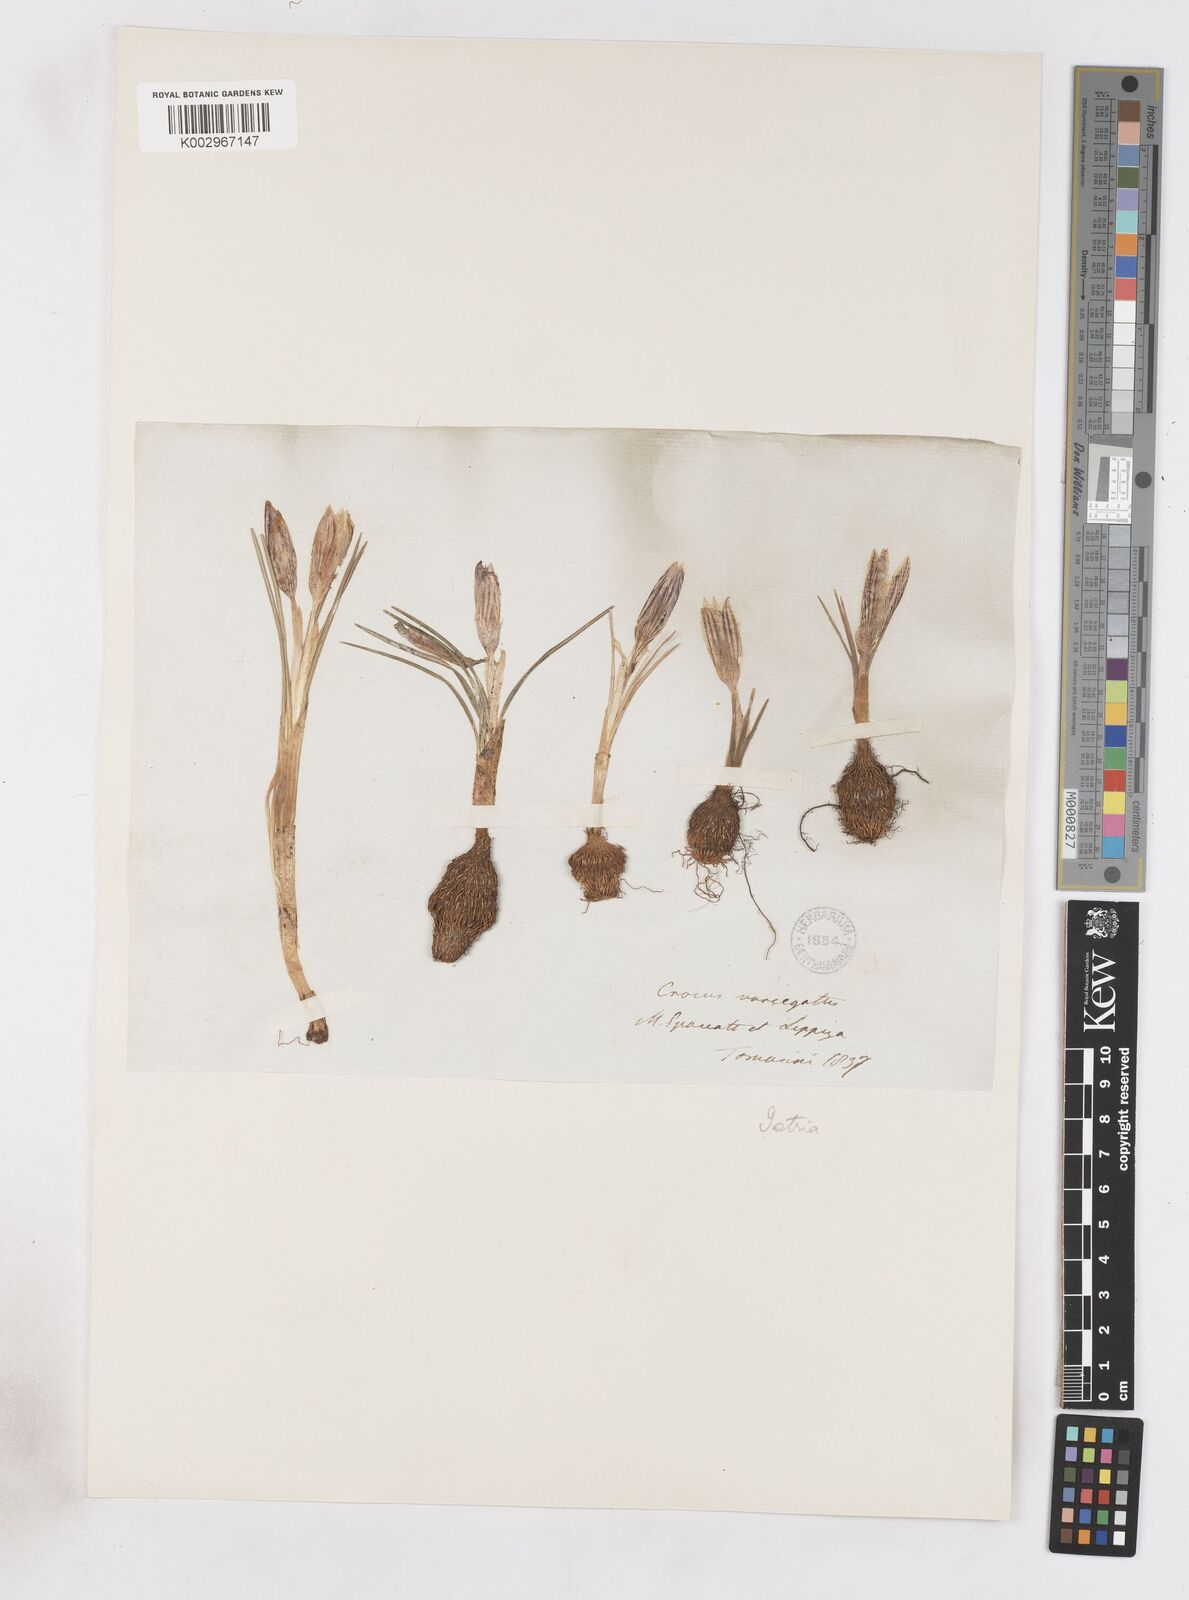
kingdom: Plantae
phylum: Tracheophyta
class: Liliopsida
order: Asparagales
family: Iridaceae
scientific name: Iridaceae
